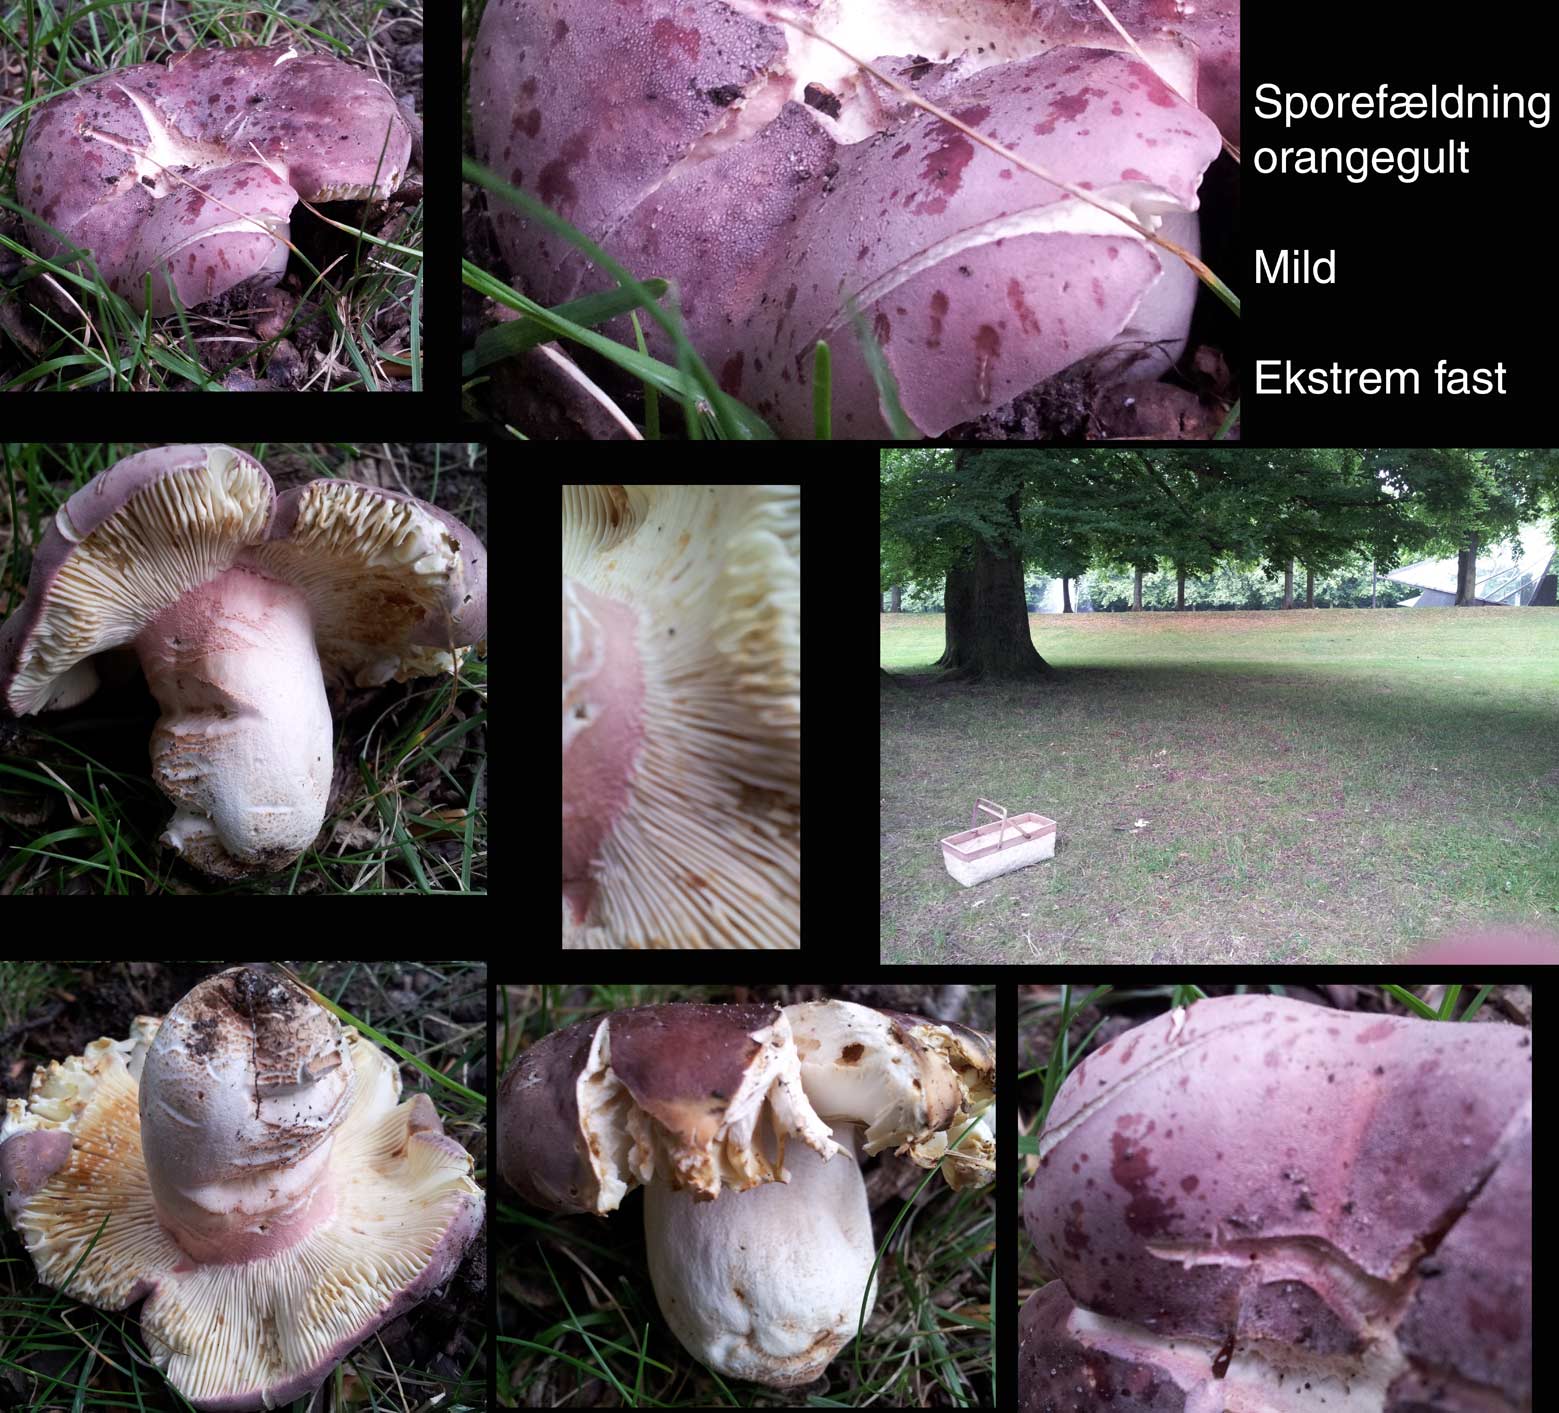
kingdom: Fungi
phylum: Basidiomycota
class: Agaricomycetes
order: Russulales
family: Russulaceae
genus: Russula
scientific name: Russula olivacea
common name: stor skørhat
